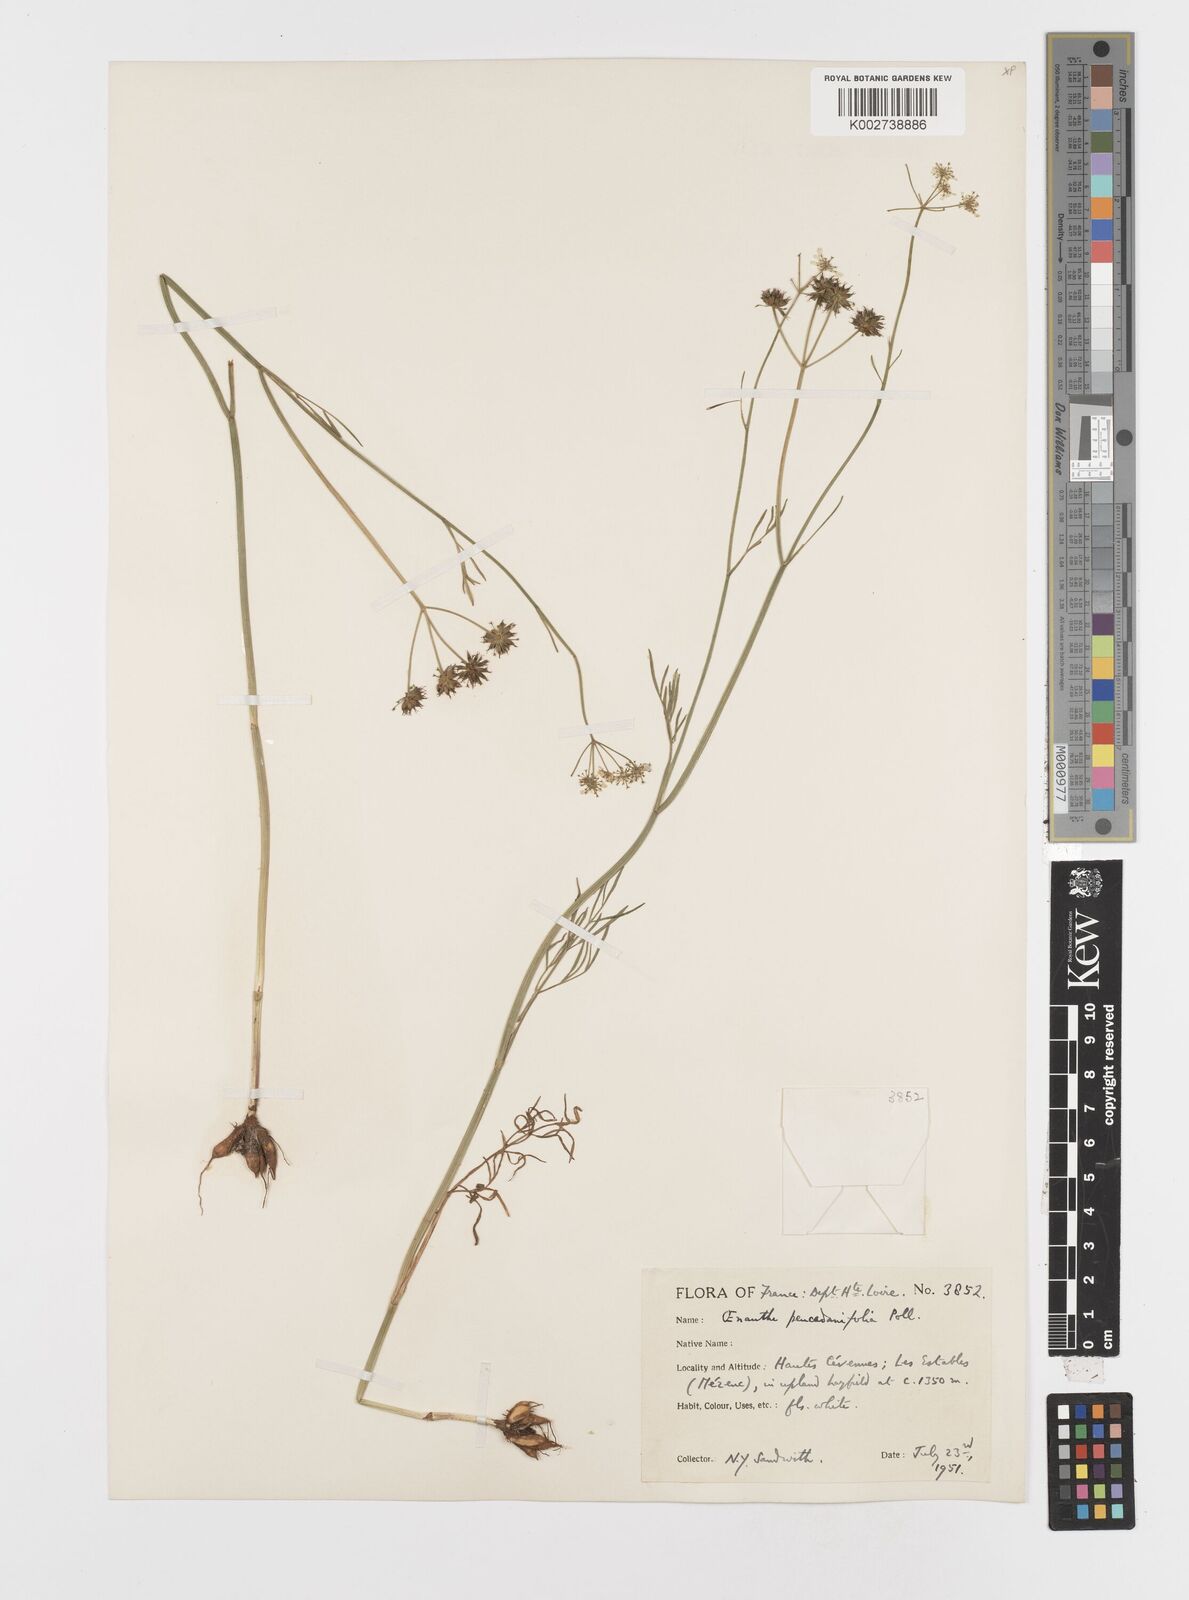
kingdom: Plantae
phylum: Tracheophyta
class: Magnoliopsida
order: Apiales
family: Apiaceae
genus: Oenanthe
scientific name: Oenanthe peucedanifolia
